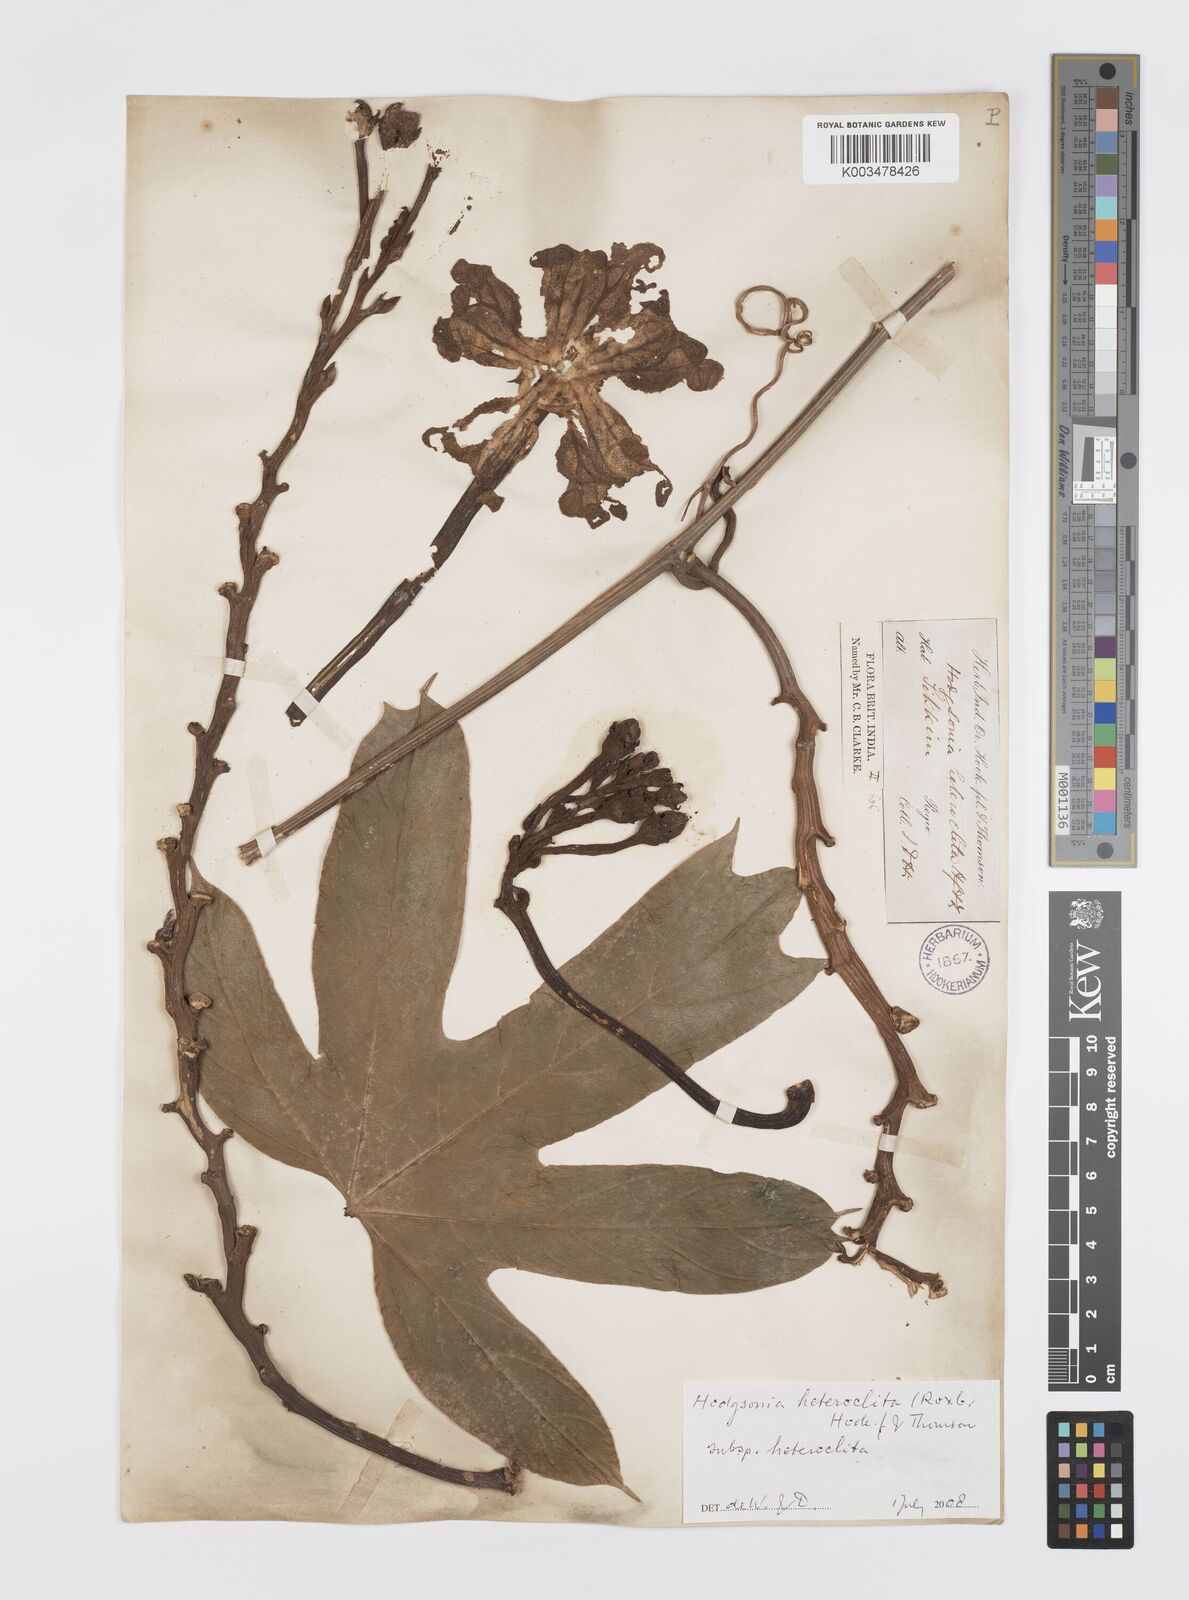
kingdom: Plantae
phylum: Tracheophyta
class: Magnoliopsida
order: Cucurbitales
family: Cucurbitaceae
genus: Hodgsonia
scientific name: Hodgsonia macrocarpa
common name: Chinese lardfruit
